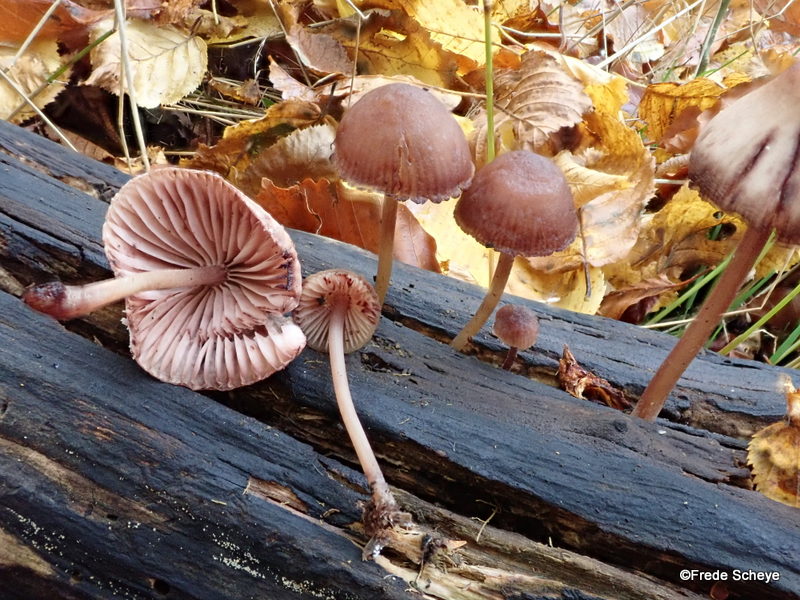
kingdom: Fungi
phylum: Basidiomycota
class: Agaricomycetes
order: Agaricales
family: Mycenaceae
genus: Mycena
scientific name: Mycena haematopus
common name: blødende huesvamp
